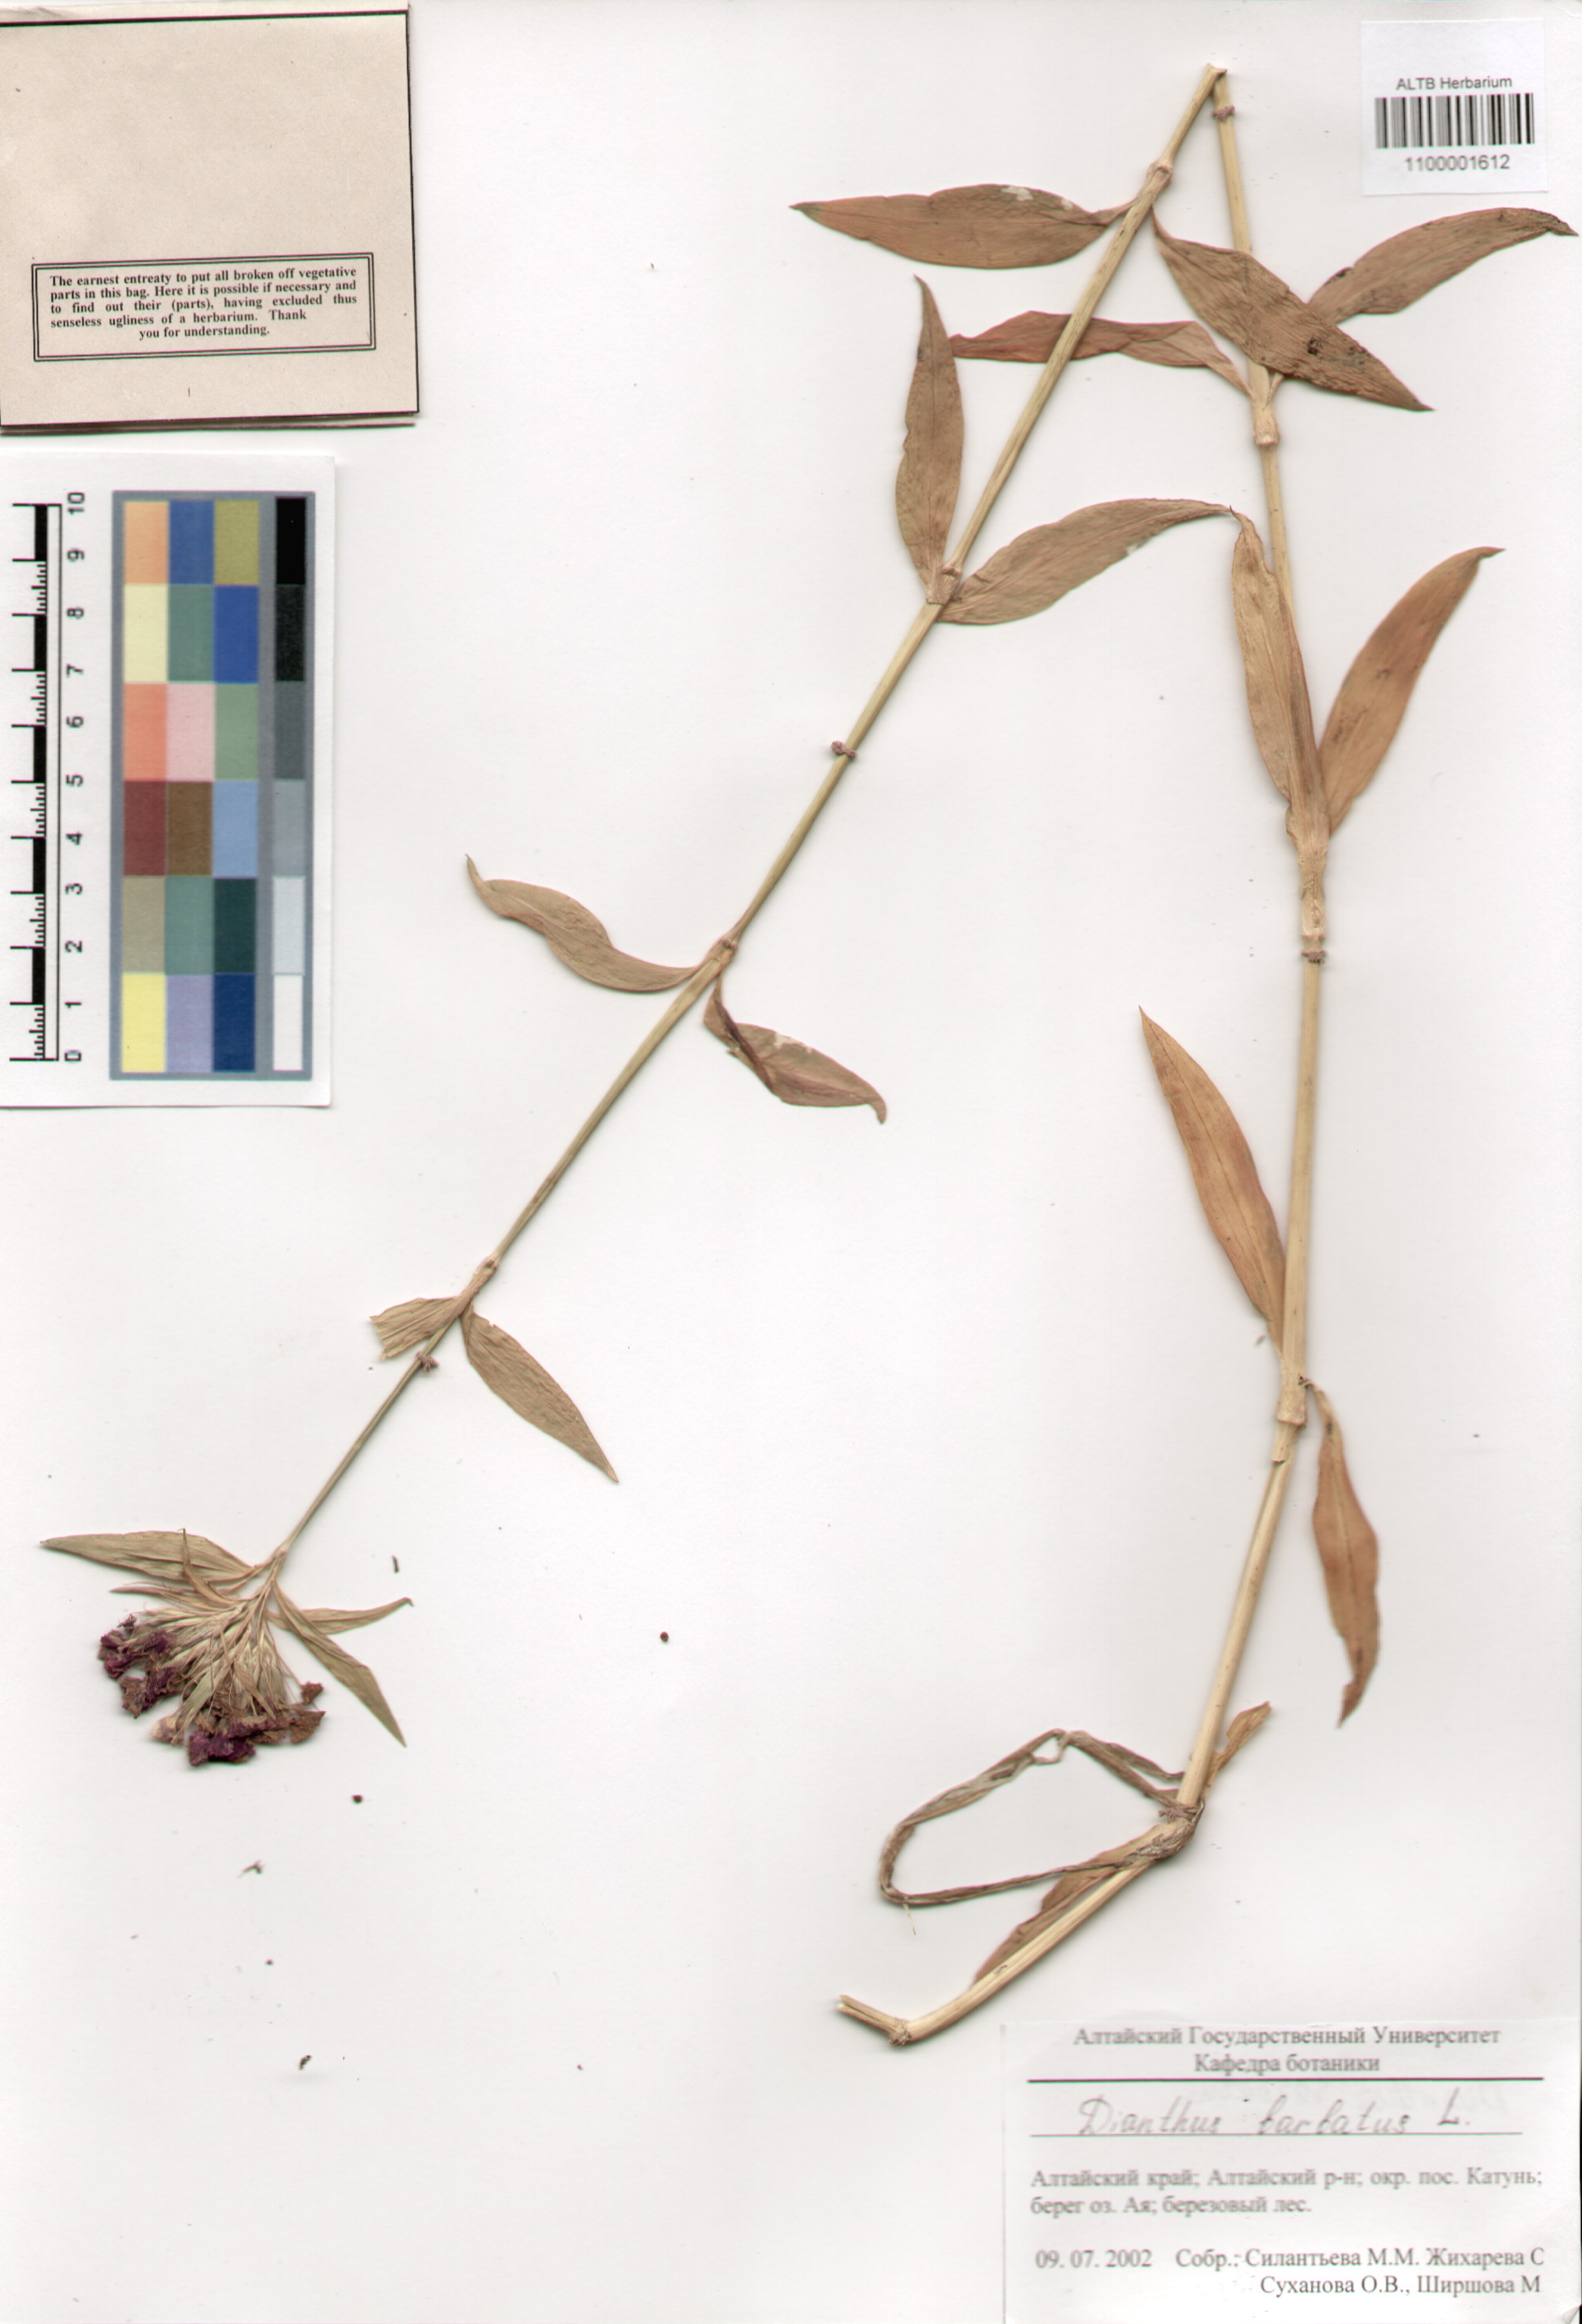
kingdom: Plantae
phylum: Tracheophyta
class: Magnoliopsida
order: Caryophyllales
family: Caryophyllaceae
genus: Dianthus
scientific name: Dianthus barbatus
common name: Sweet-william
